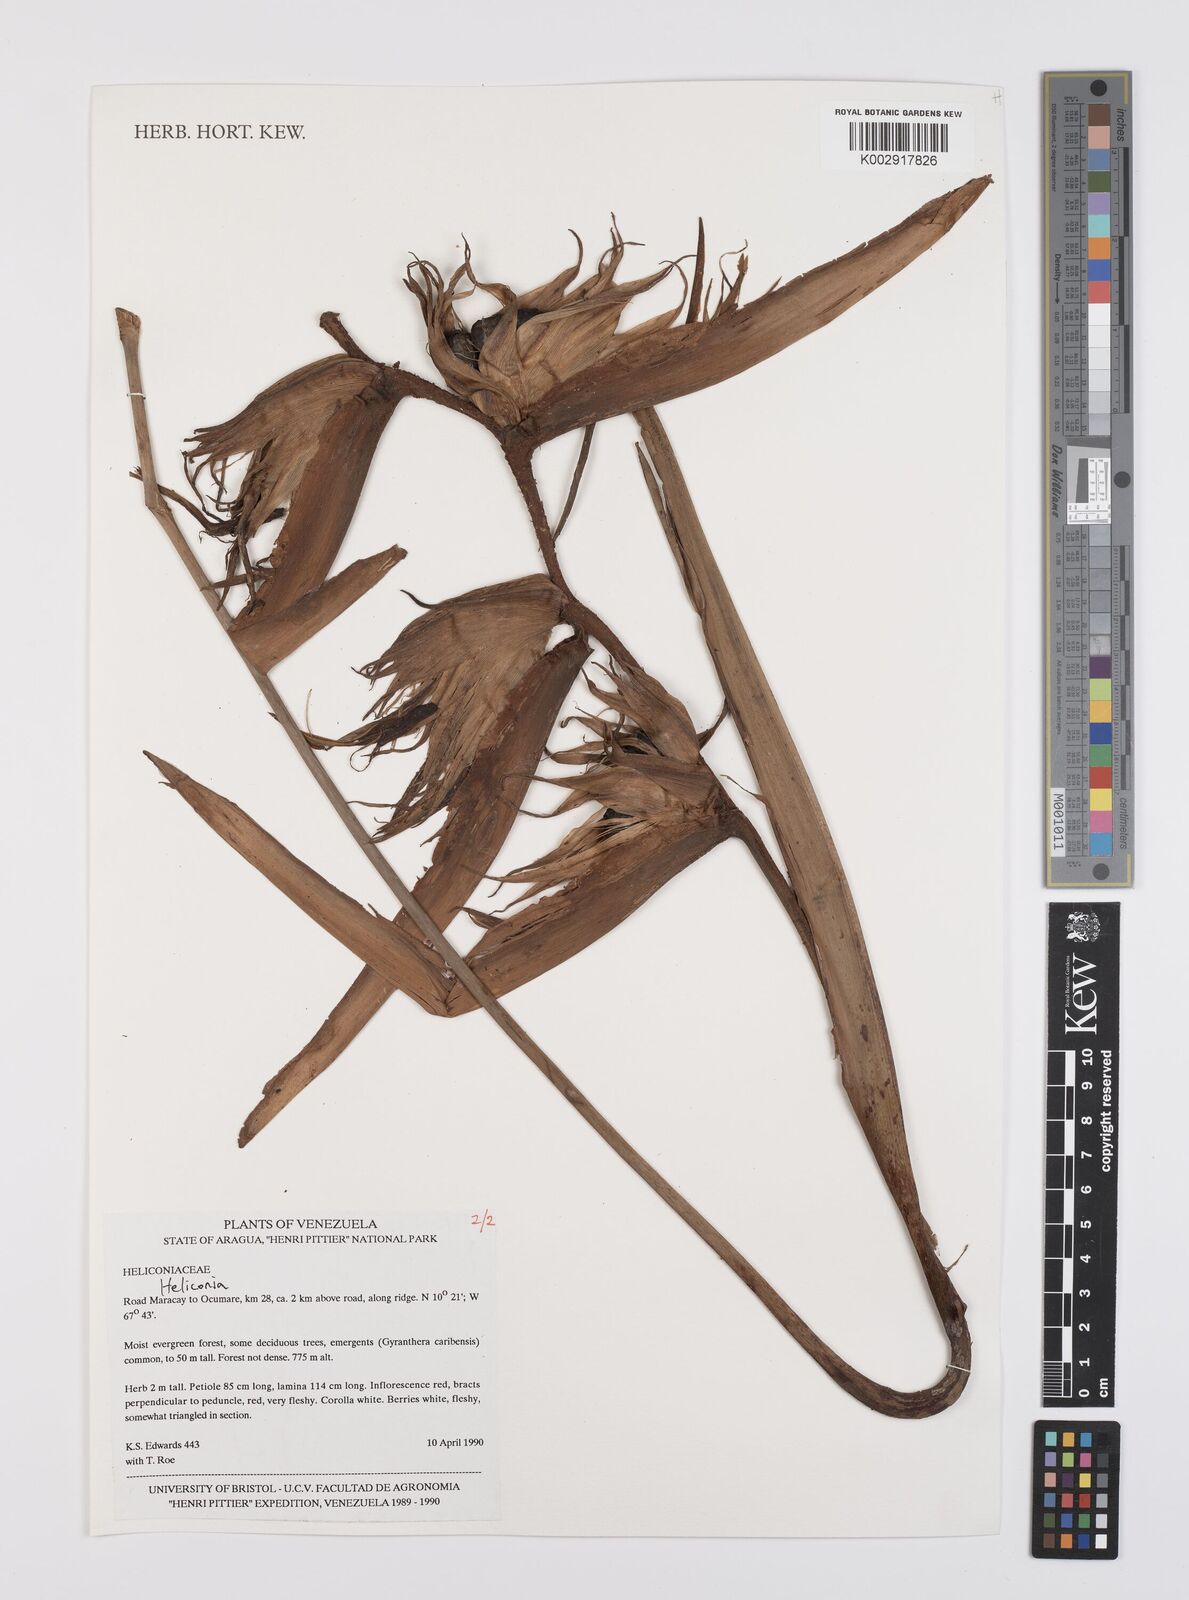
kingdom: Plantae
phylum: Tracheophyta
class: Liliopsida
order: Zingiberales
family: Heliconiaceae
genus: Heliconia
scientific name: Heliconia
